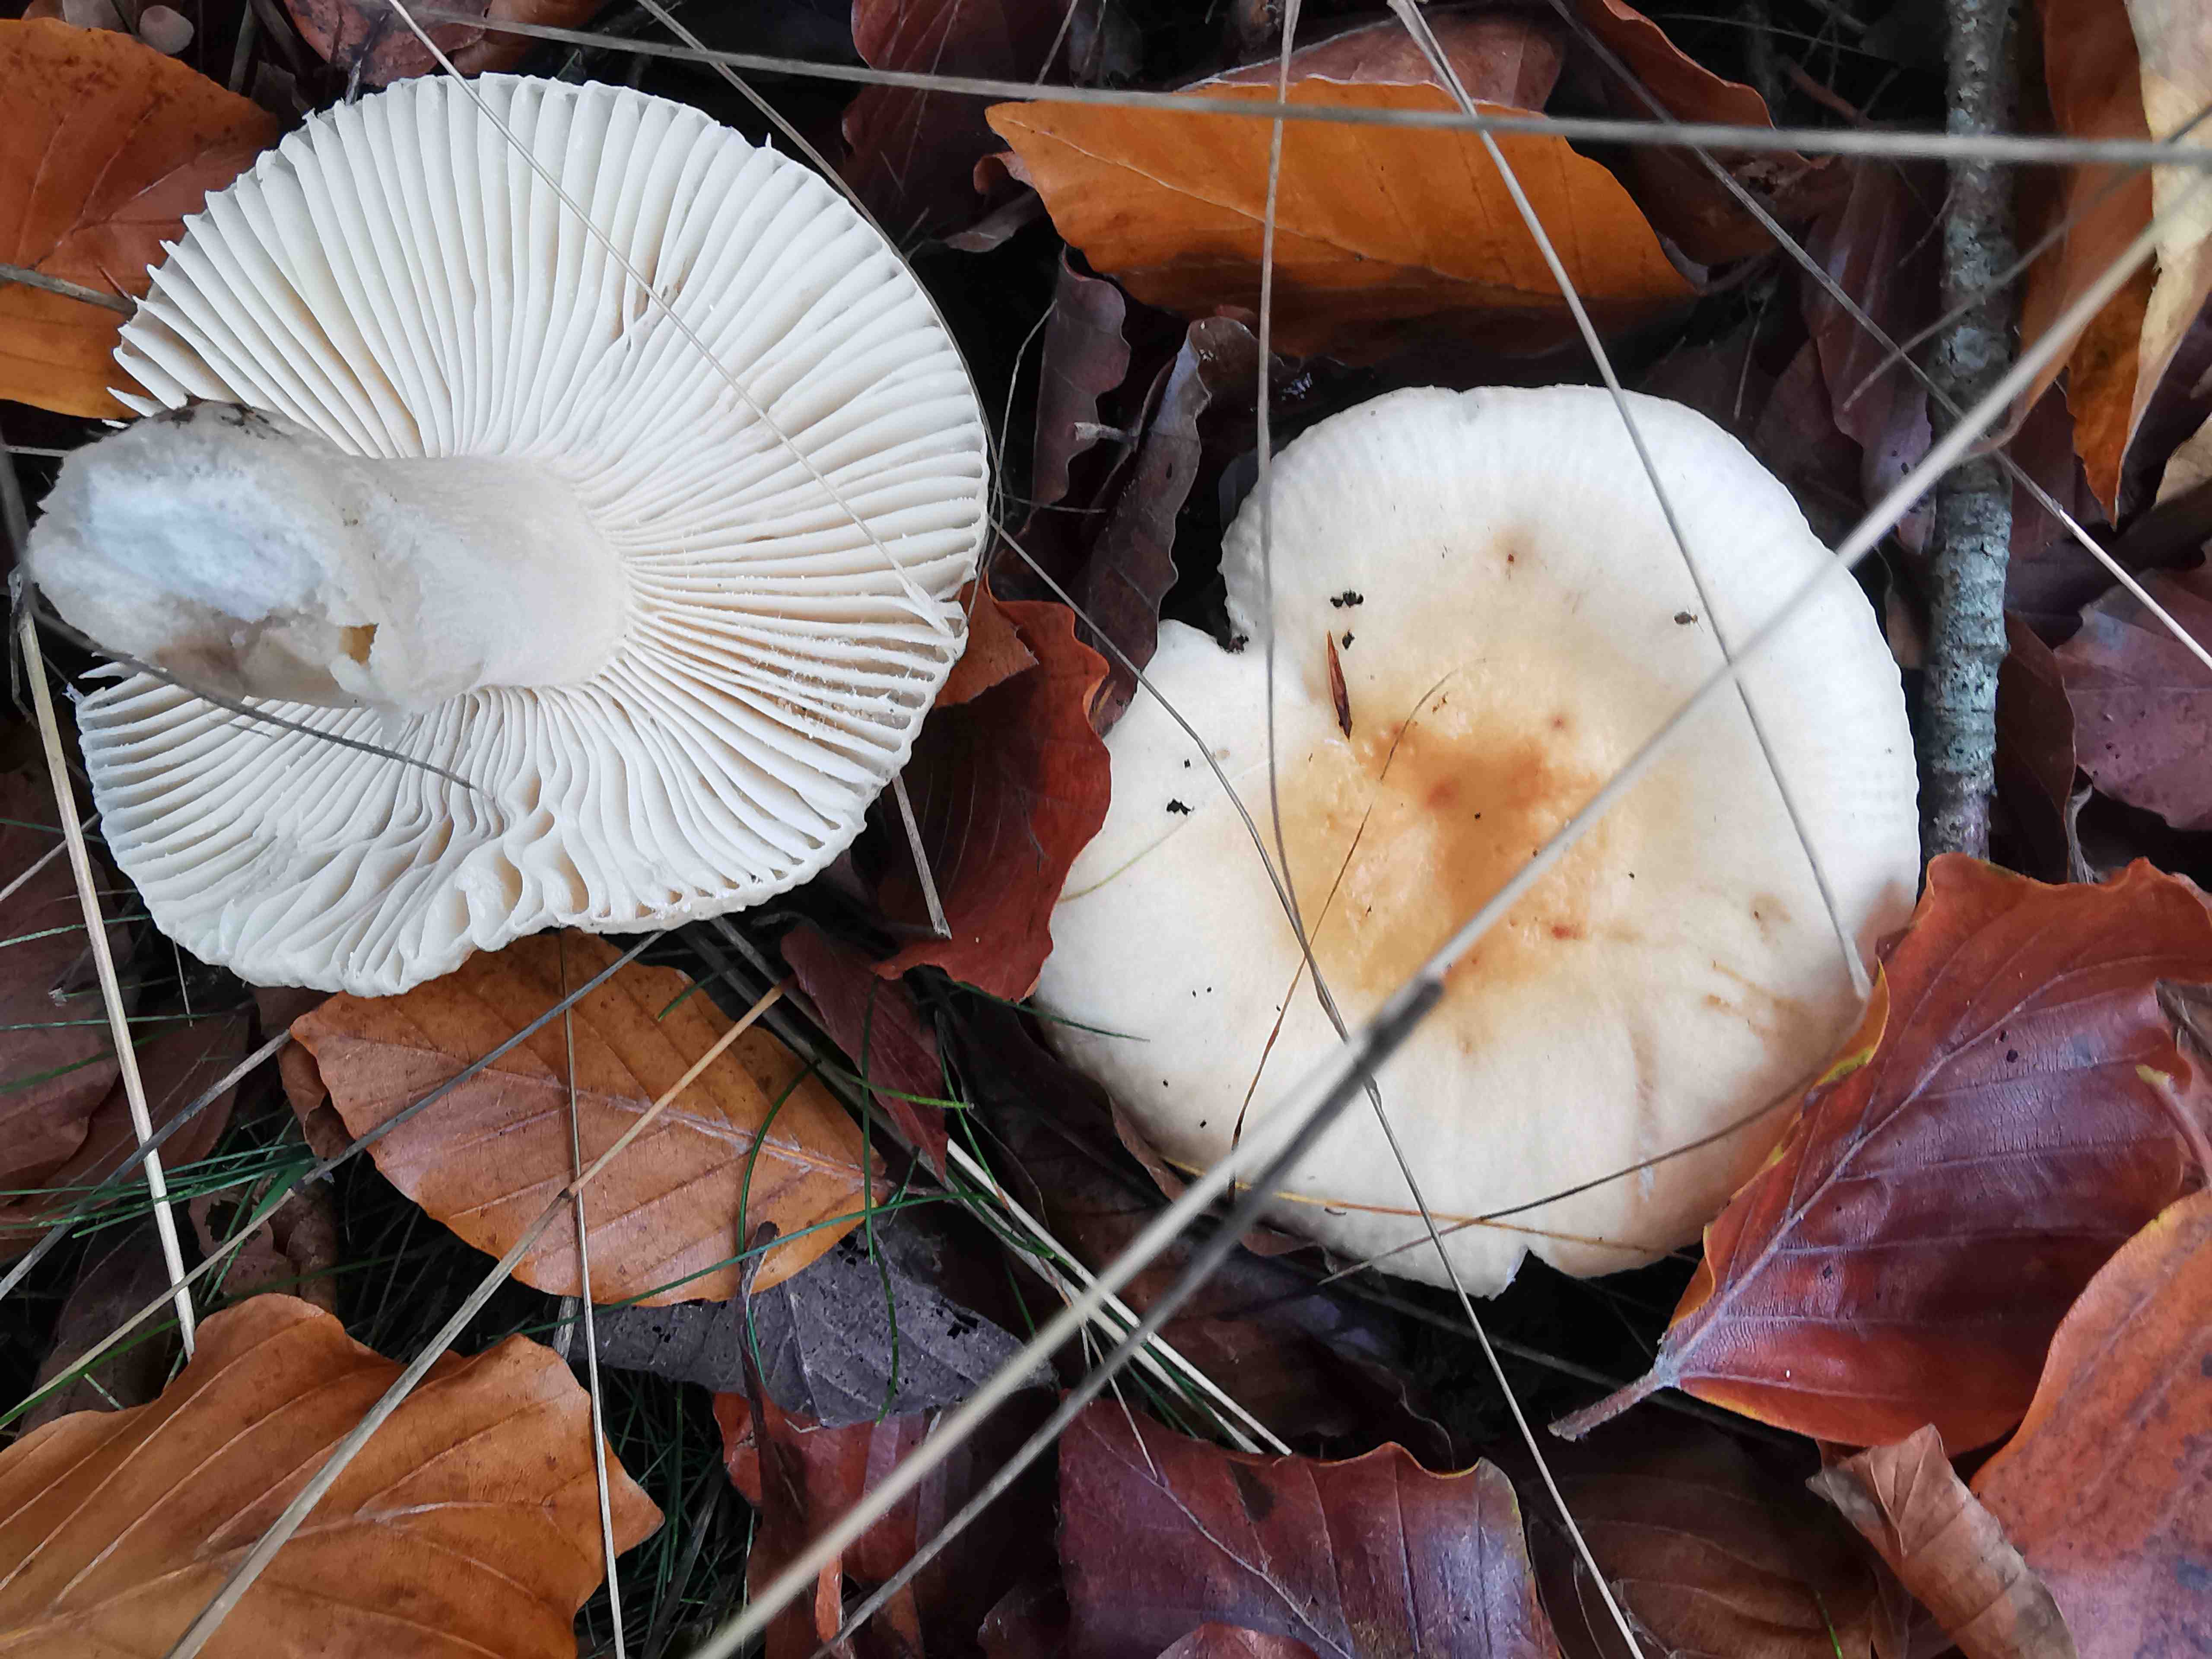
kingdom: Fungi
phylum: Basidiomycota
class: Agaricomycetes
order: Russulales
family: Russulaceae
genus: Russula
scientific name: Russula fellea
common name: galde-skørhat
